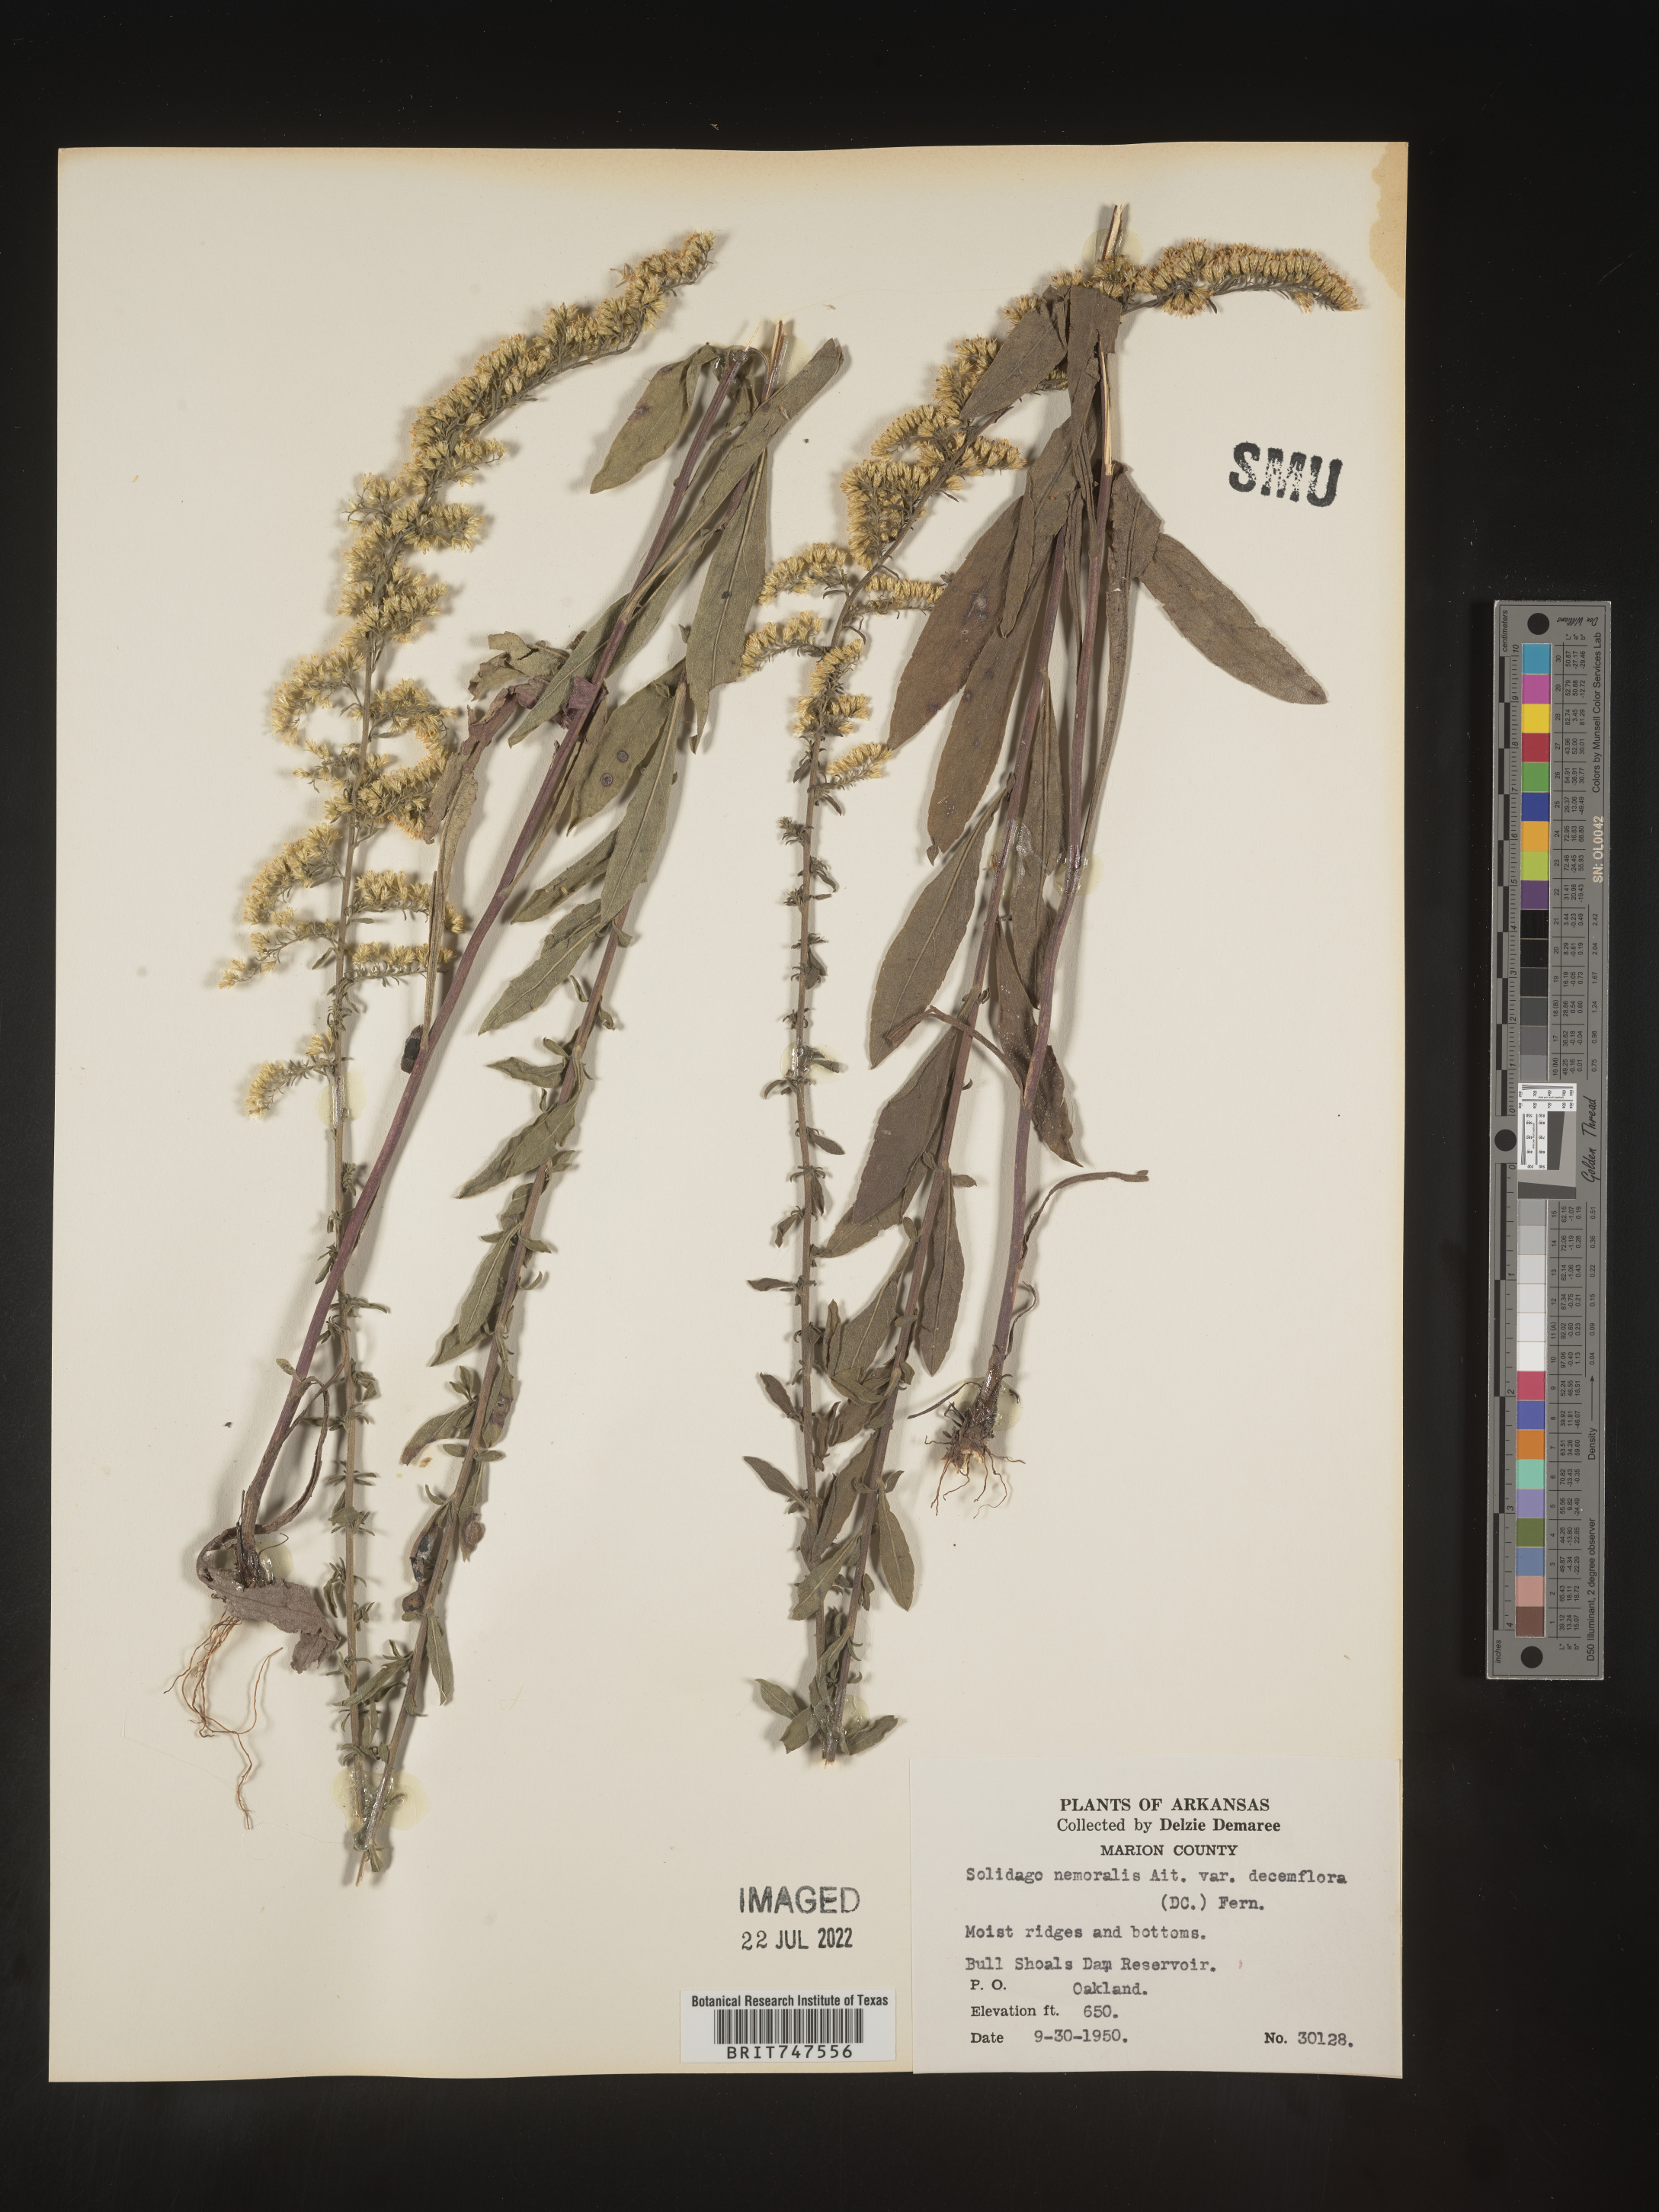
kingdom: Plantae
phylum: Tracheophyta
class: Magnoliopsida
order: Asterales
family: Asteraceae
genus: Solidago
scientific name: Solidago nemoralis
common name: Grey goldenrod
